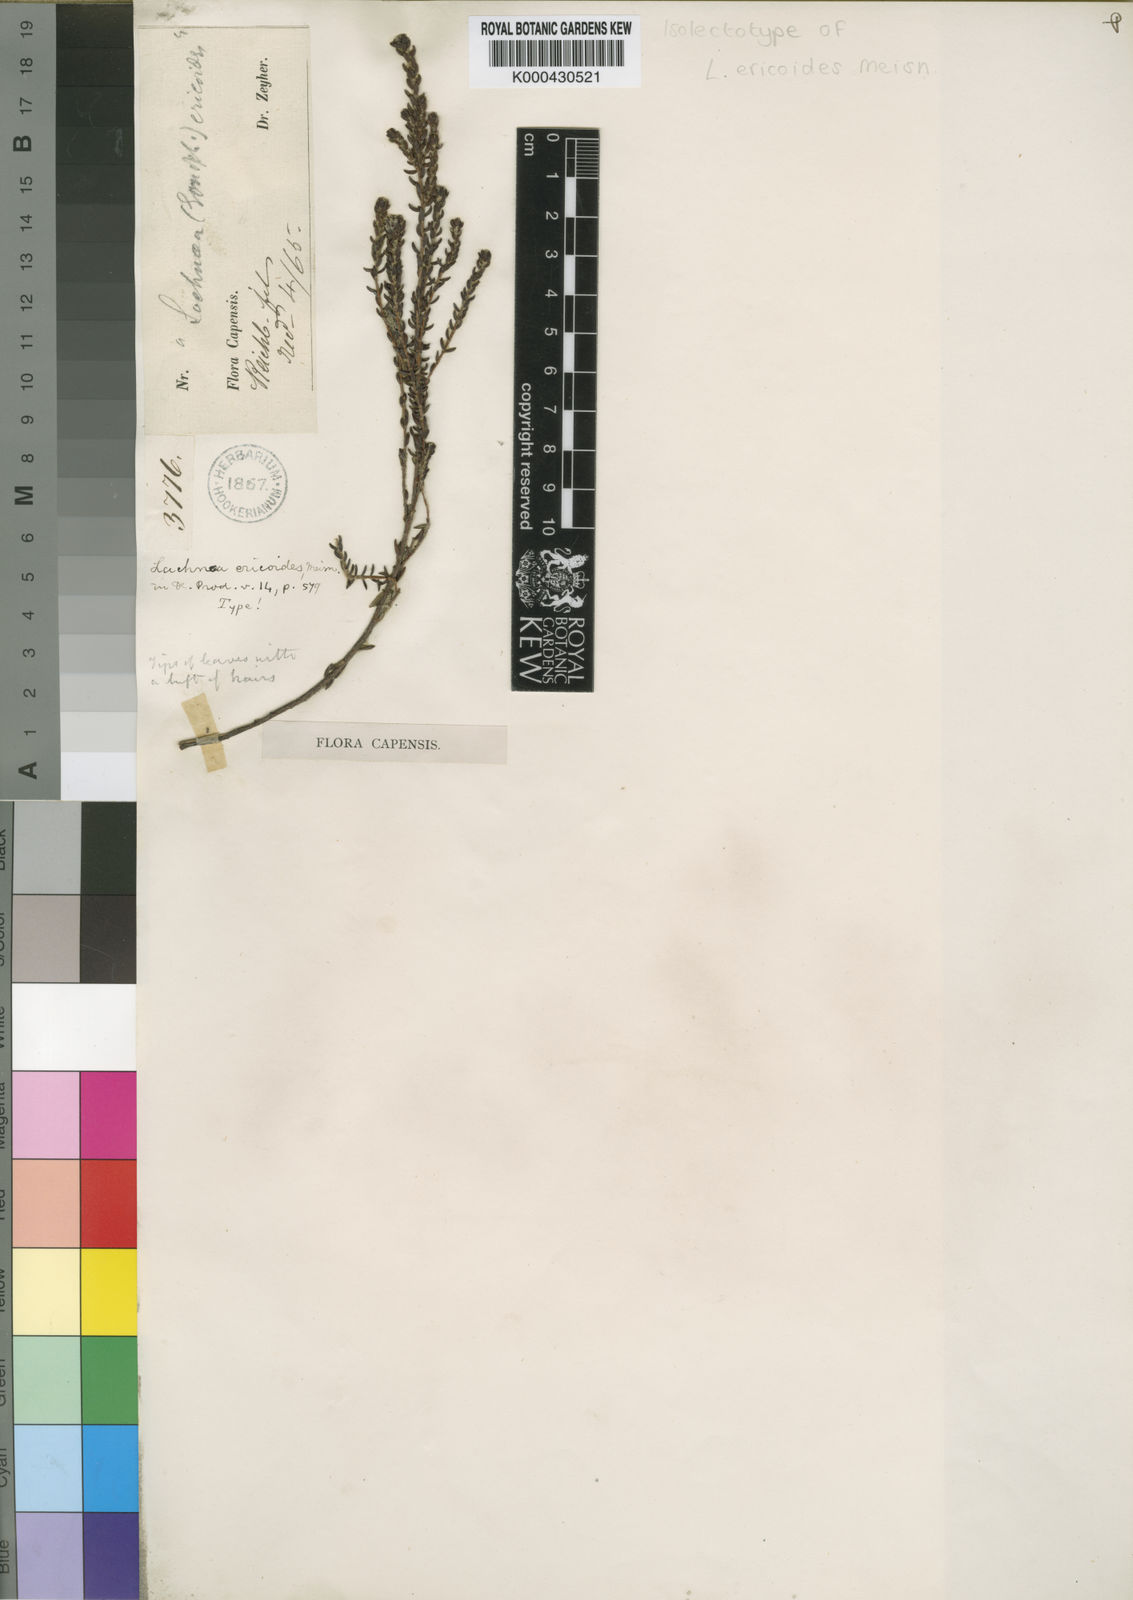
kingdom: Plantae
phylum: Tracheophyta
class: Magnoliopsida
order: Malvales
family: Thymelaeaceae
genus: Lachnaea
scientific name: Lachnaea ericoides
